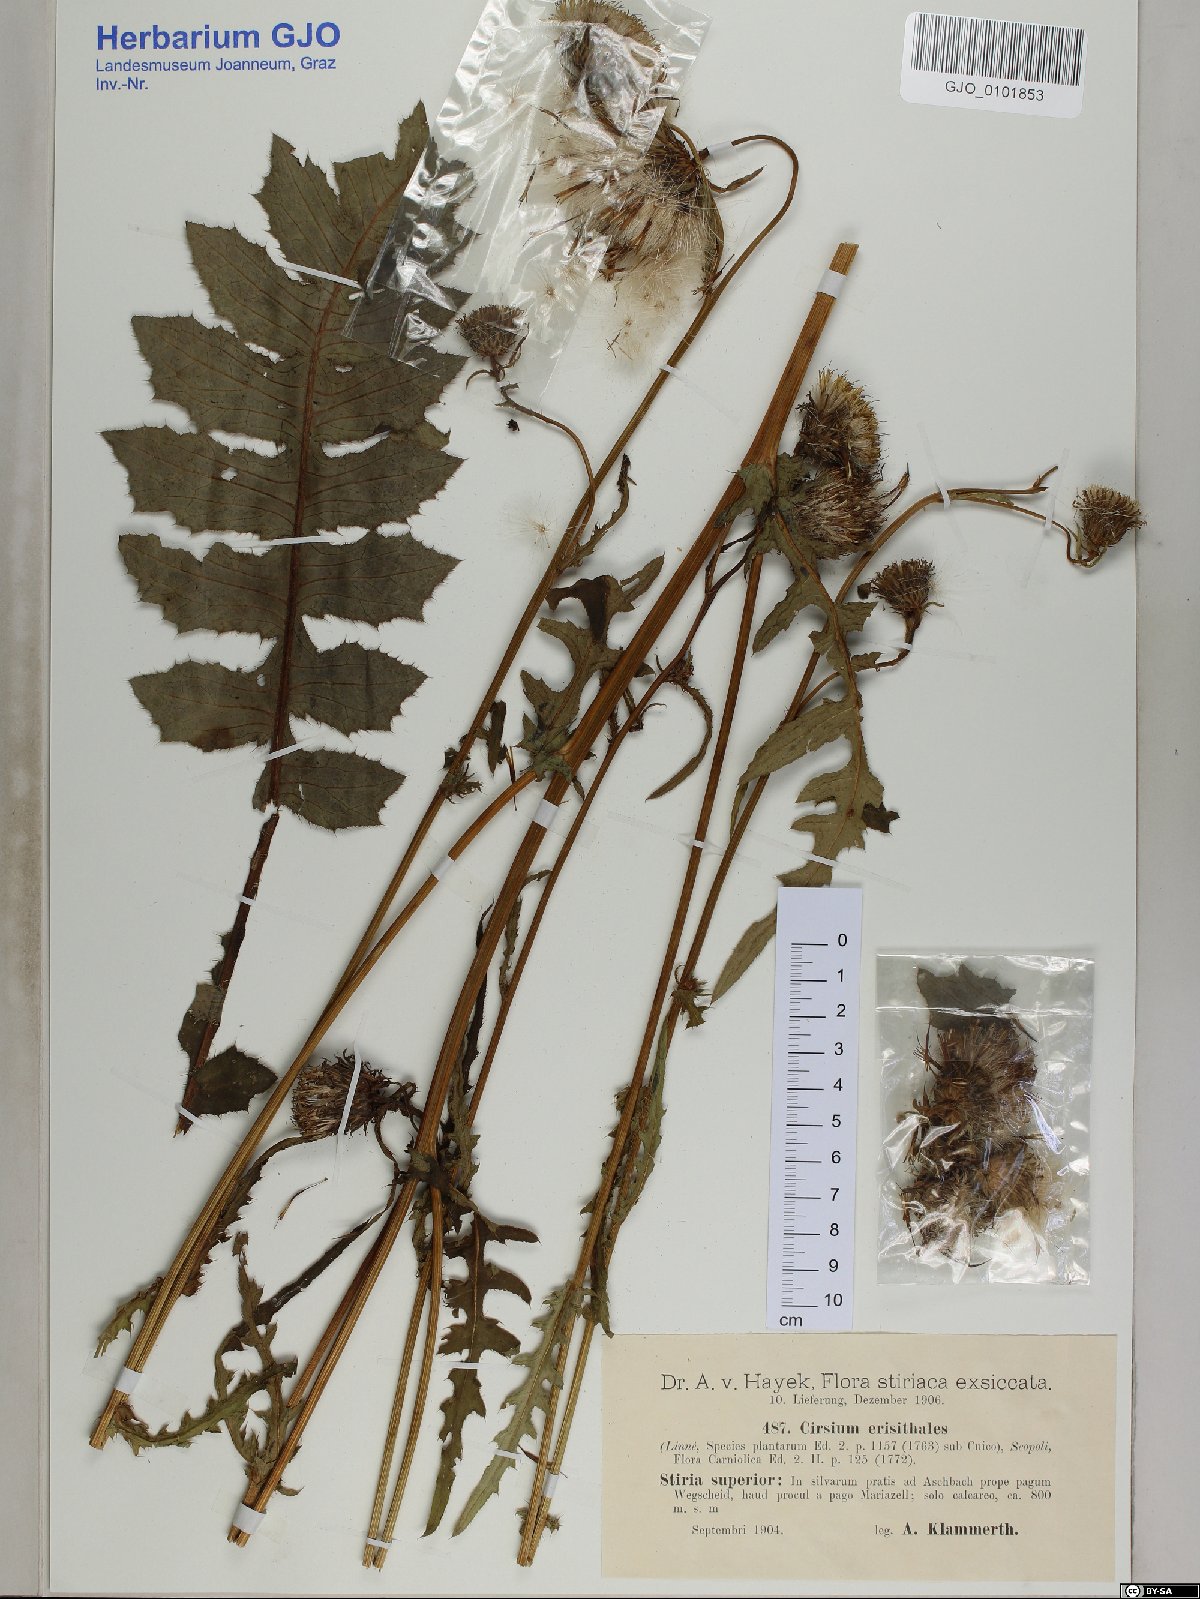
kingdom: Plantae
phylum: Tracheophyta
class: Magnoliopsida
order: Asterales
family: Asteraceae
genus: Cirsium
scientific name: Cirsium erisithales
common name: Yellow thistle
